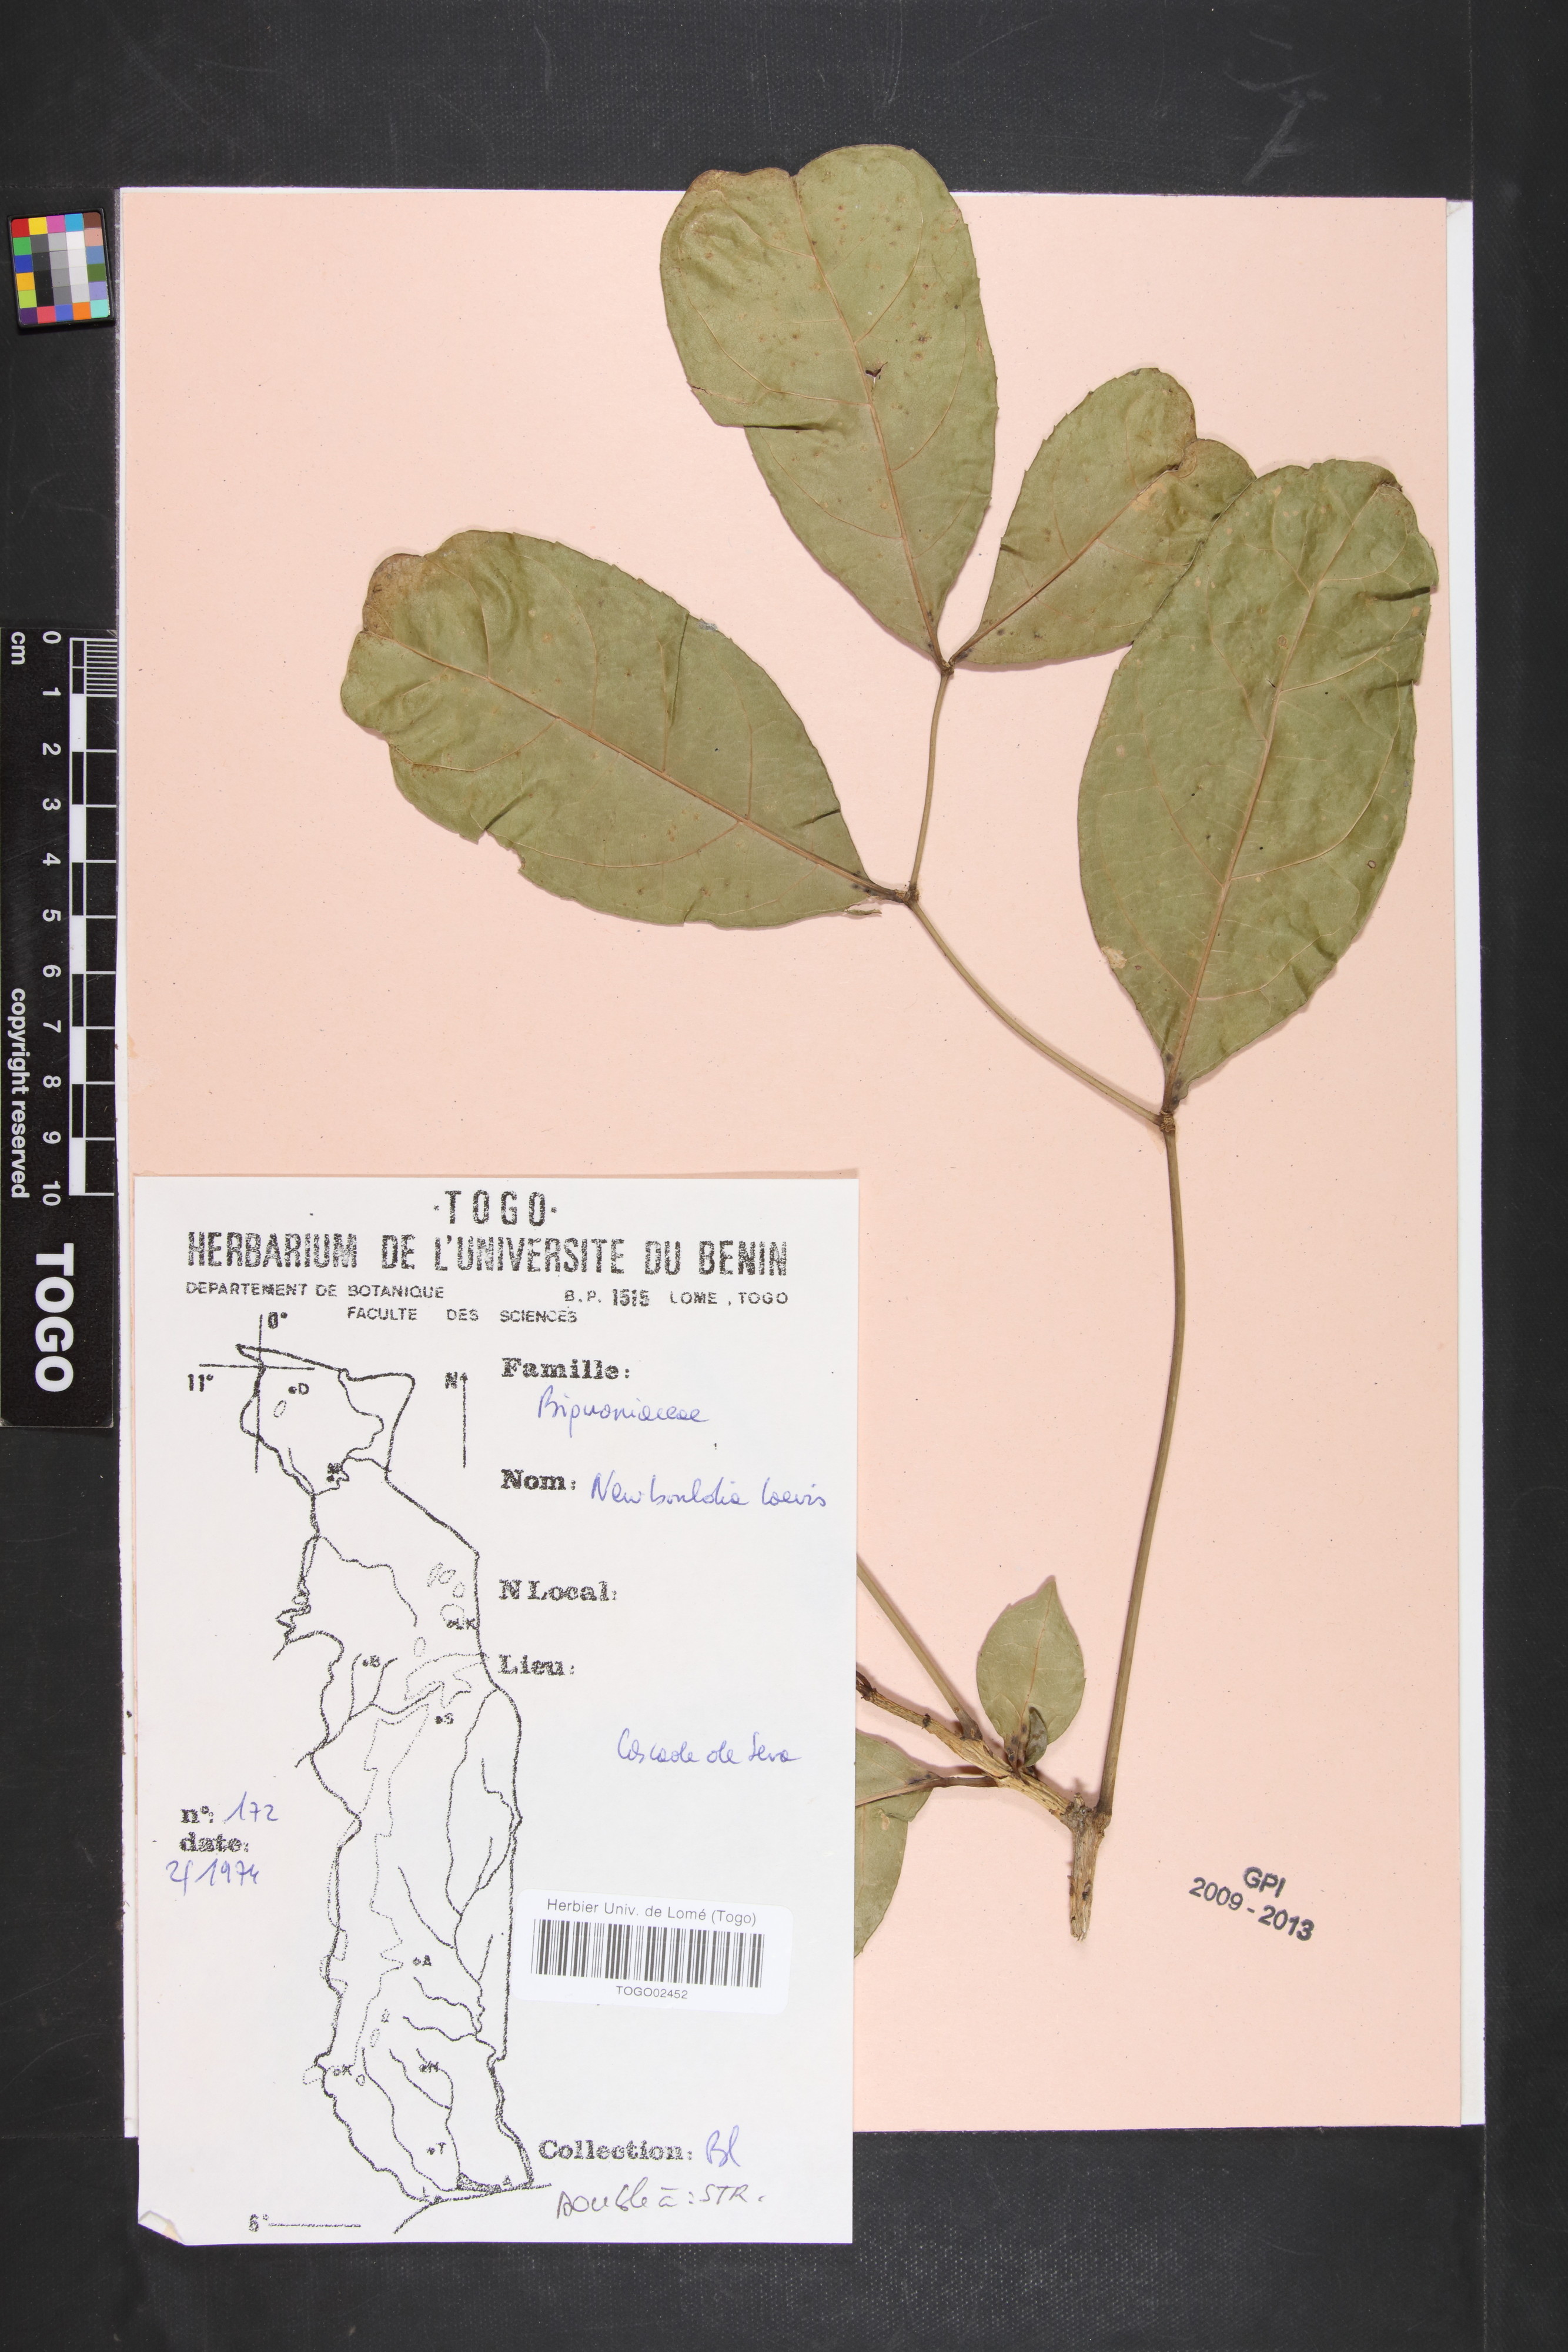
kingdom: Plantae
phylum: Tracheophyta
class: Magnoliopsida
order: Lamiales
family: Bignoniaceae
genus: Newbouldia
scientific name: Newbouldia laevis
